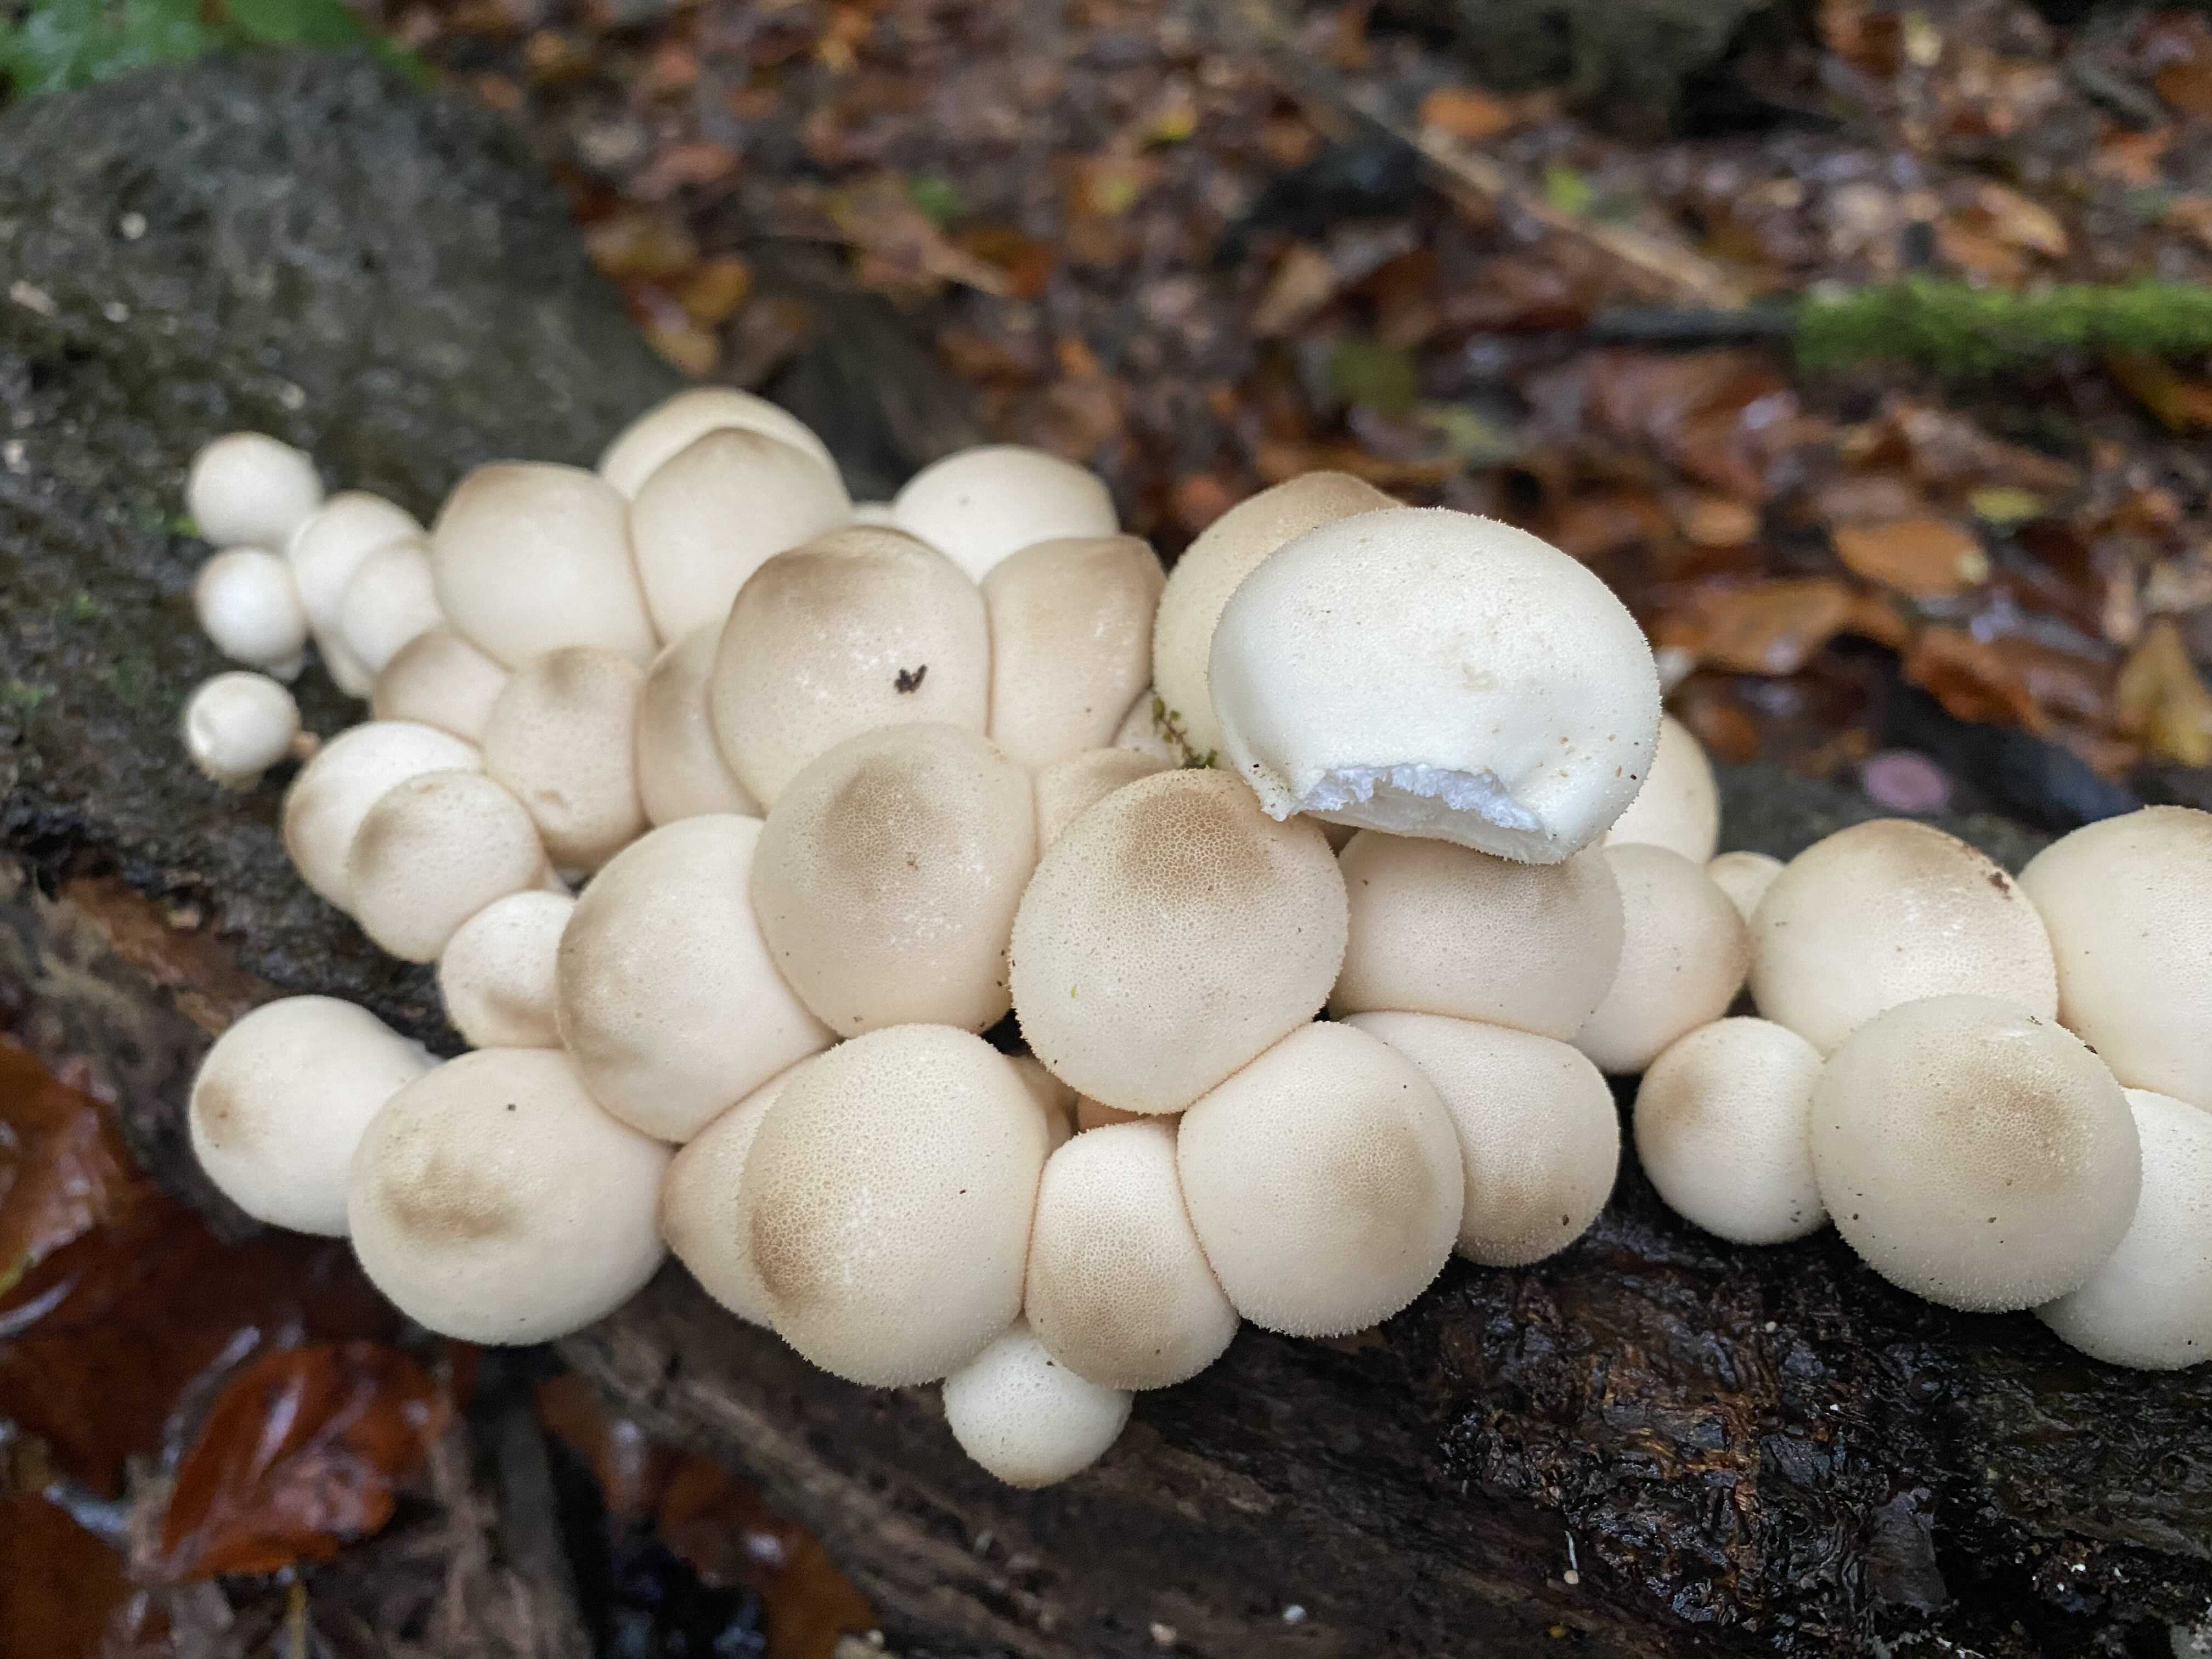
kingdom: Fungi
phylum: Basidiomycota
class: Agaricomycetes
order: Agaricales
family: Lycoperdaceae
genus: Apioperdon
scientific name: Apioperdon pyriforme
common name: pære-støvbold
